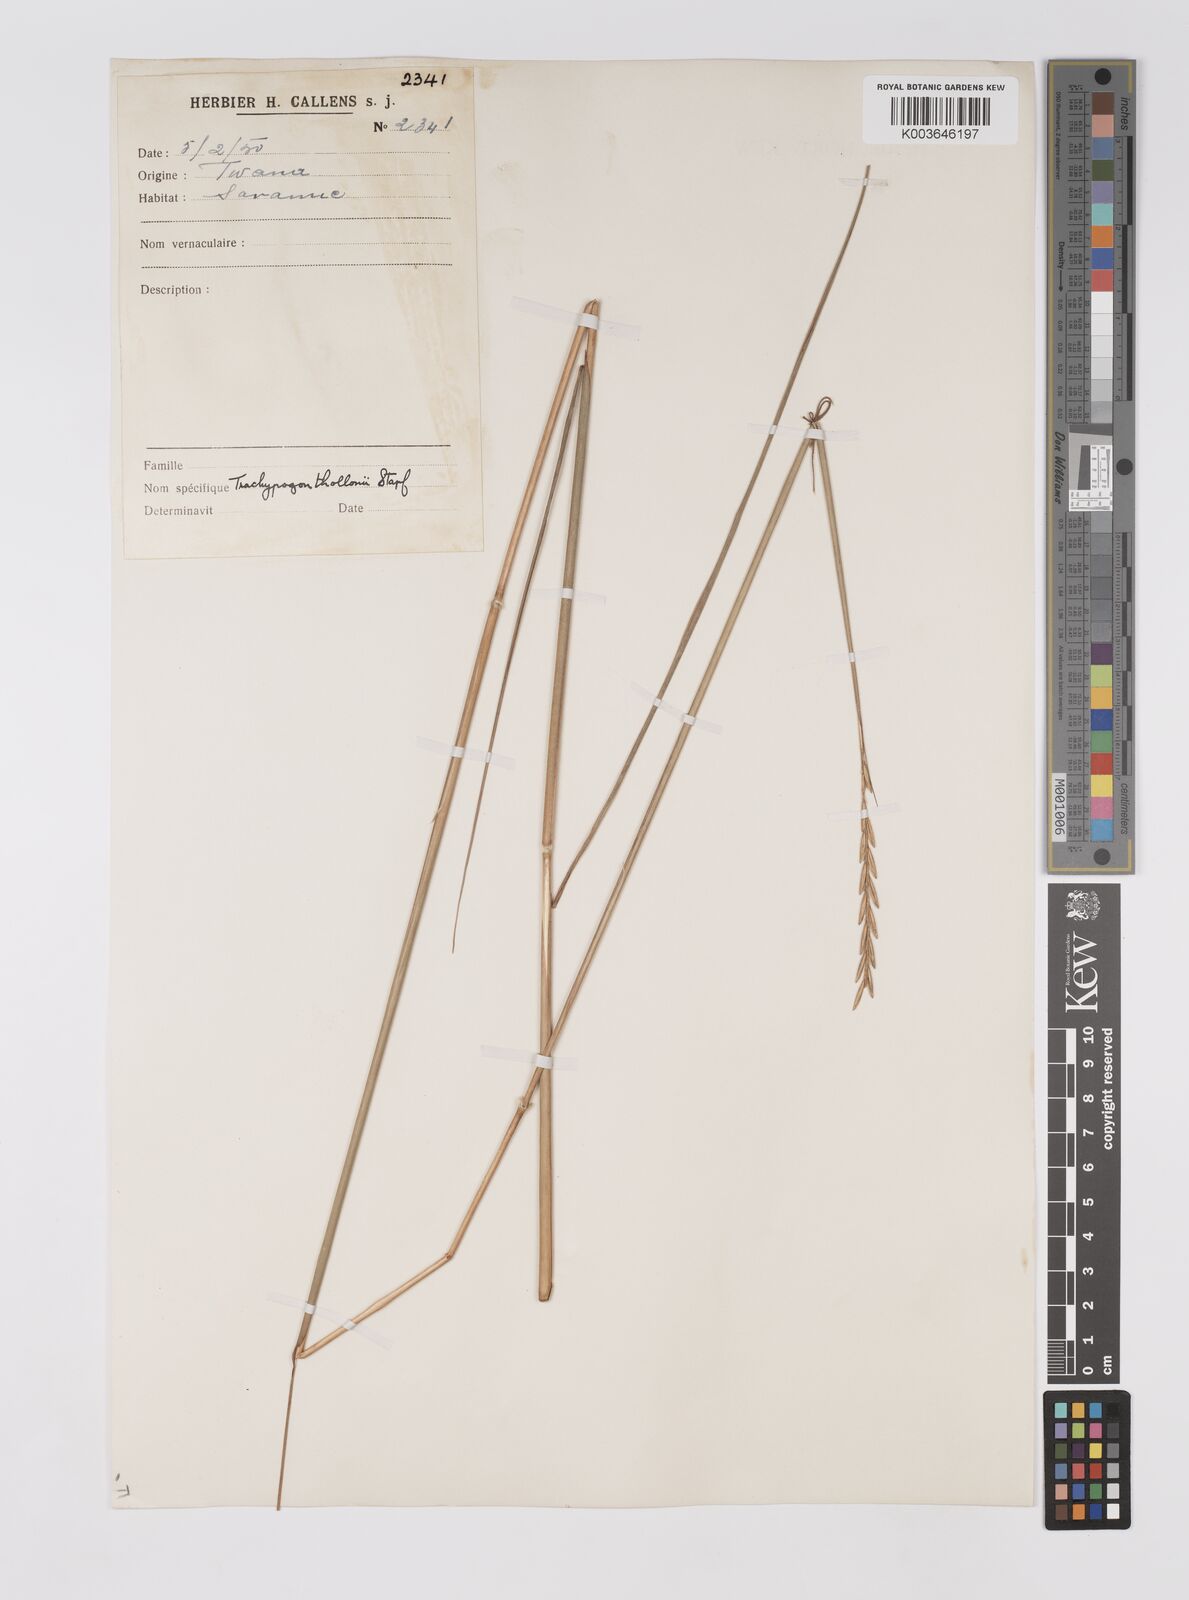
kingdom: Plantae
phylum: Tracheophyta
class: Liliopsida
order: Poales
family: Poaceae
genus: Trachypogon
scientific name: Trachypogon spicatus
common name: Crinkle-awn
